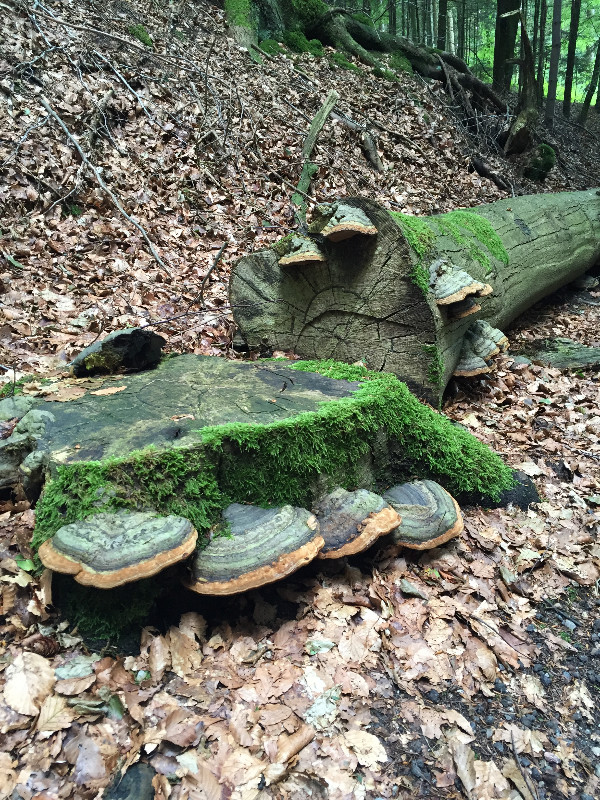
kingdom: Fungi
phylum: Basidiomycota
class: Agaricomycetes
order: Polyporales
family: Polyporaceae
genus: Fomes
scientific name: Fomes fomentarius
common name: tøndersvamp
